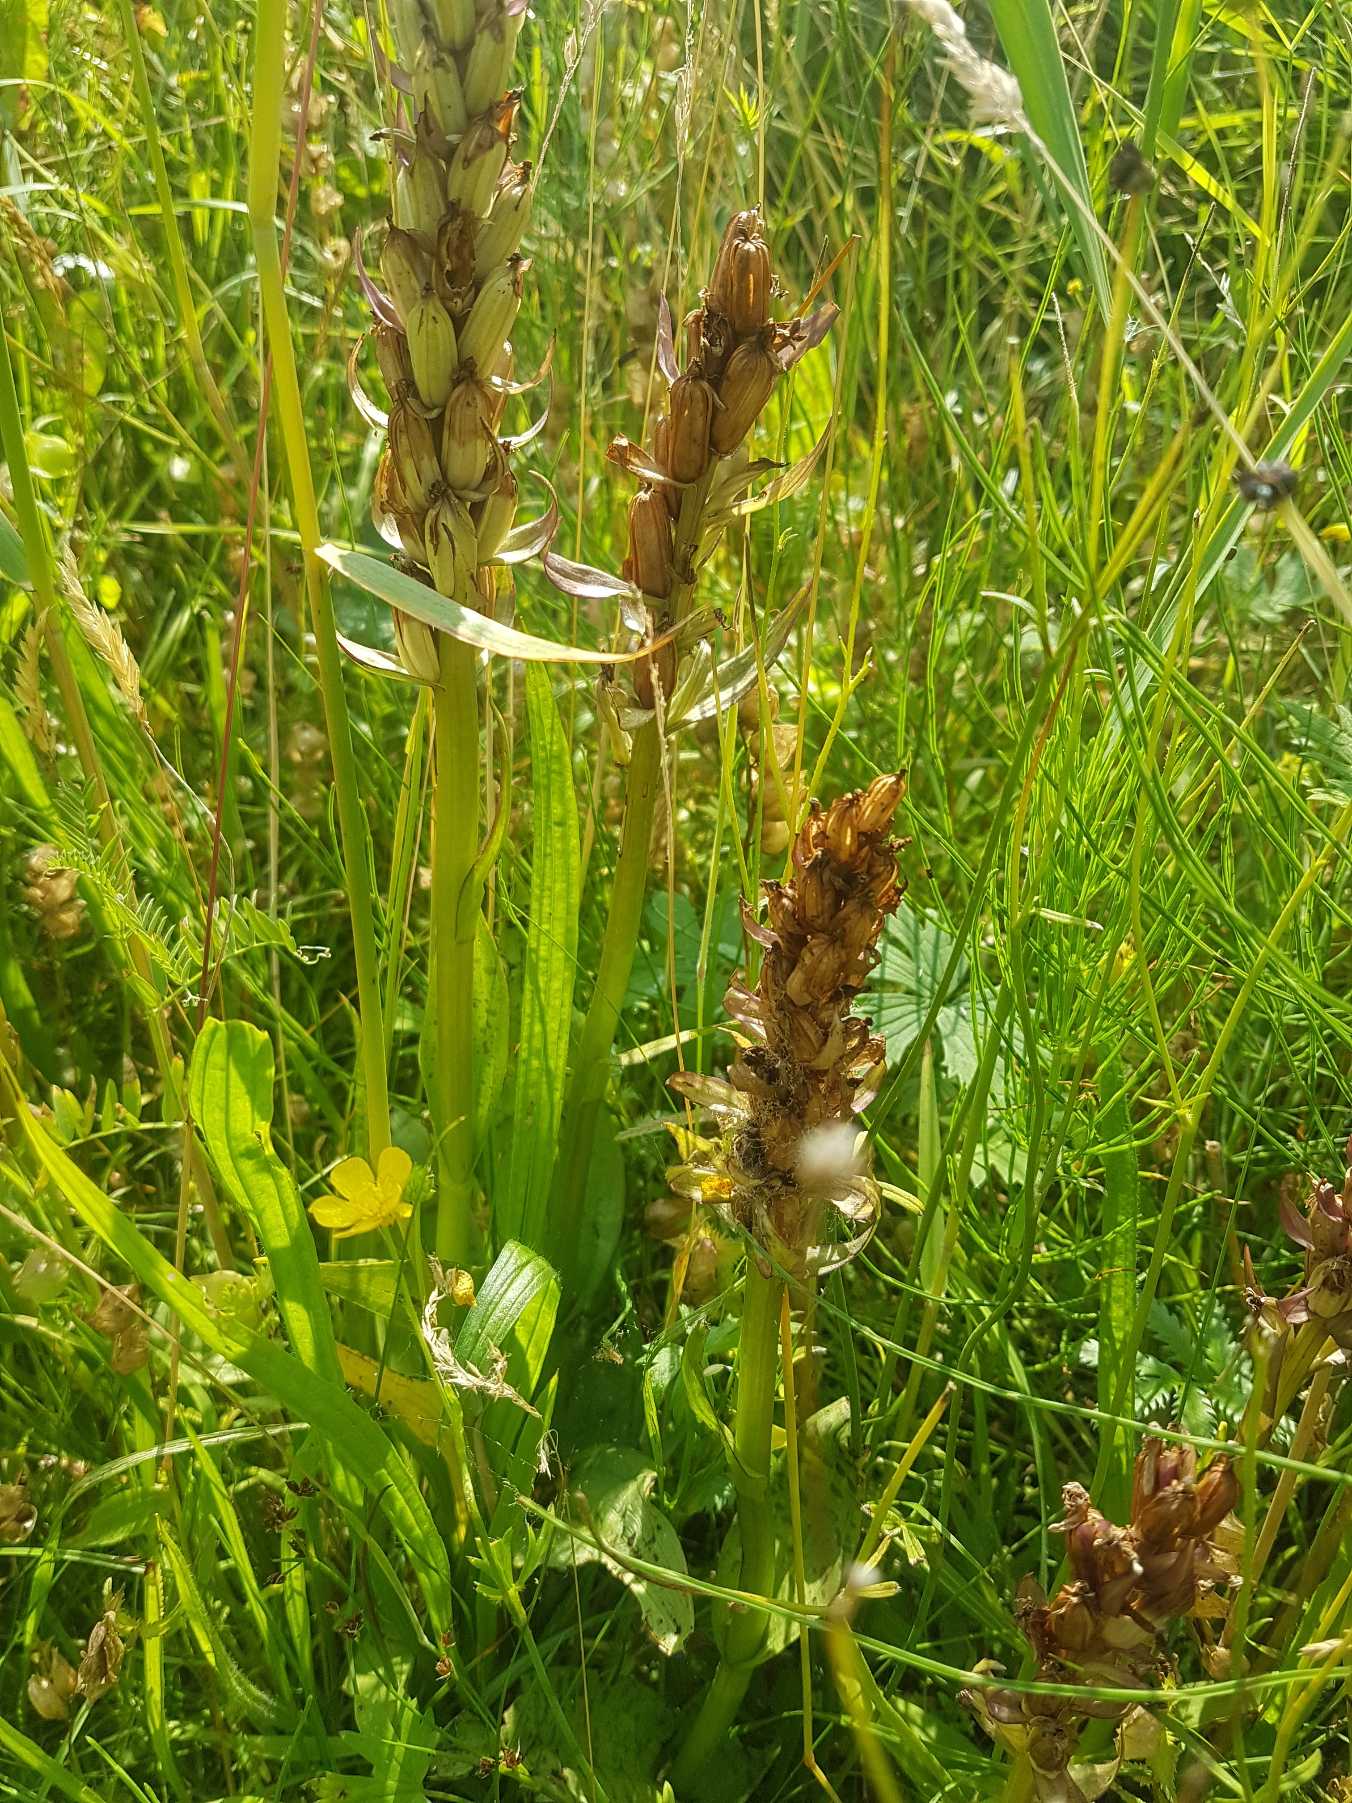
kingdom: Plantae
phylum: Tracheophyta
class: Liliopsida
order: Asparagales
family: Orchidaceae
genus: Dactylorhiza
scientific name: Dactylorhiza
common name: Gøgeurt (Dactylorhiza-slægten)
